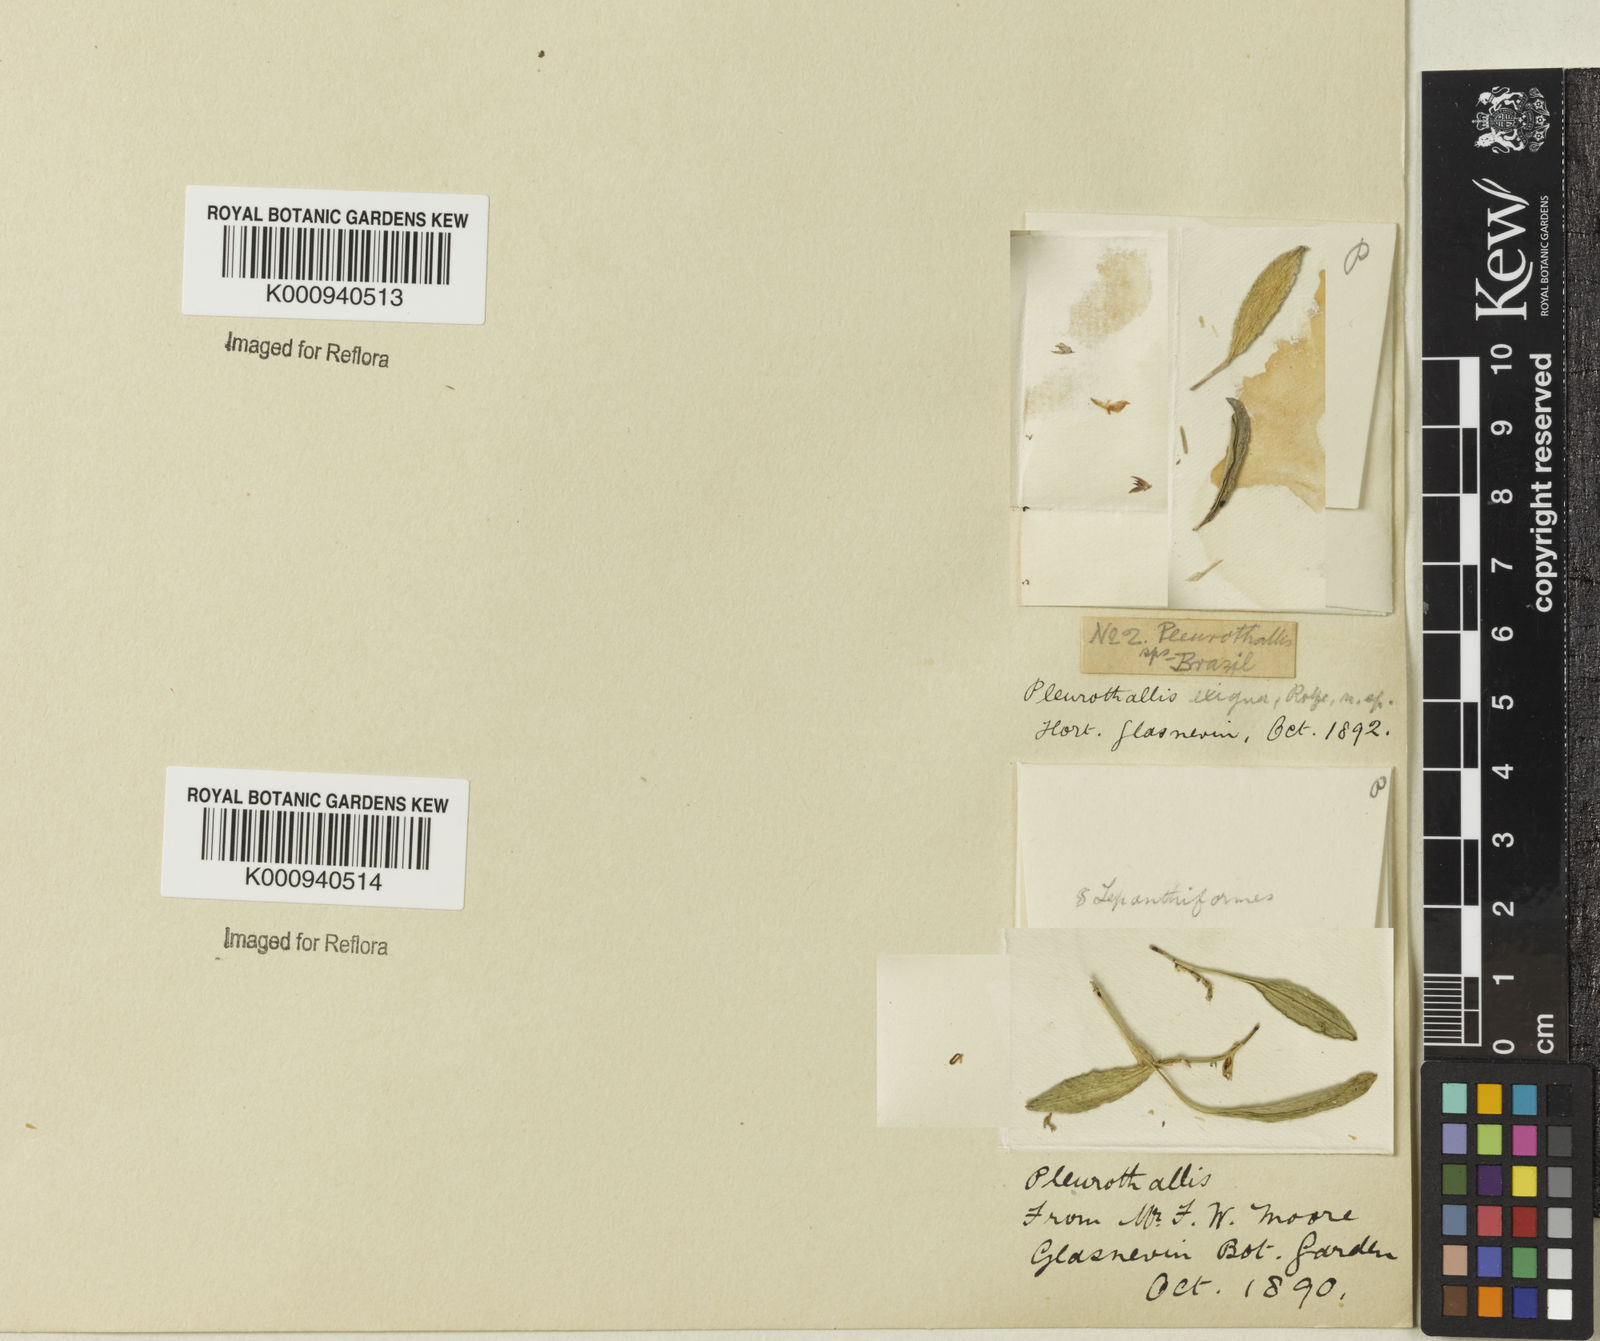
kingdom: Plantae
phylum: Tracheophyta
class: Liliopsida
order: Asparagales
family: Orchidaceae
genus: Anathallis
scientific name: Anathallis
